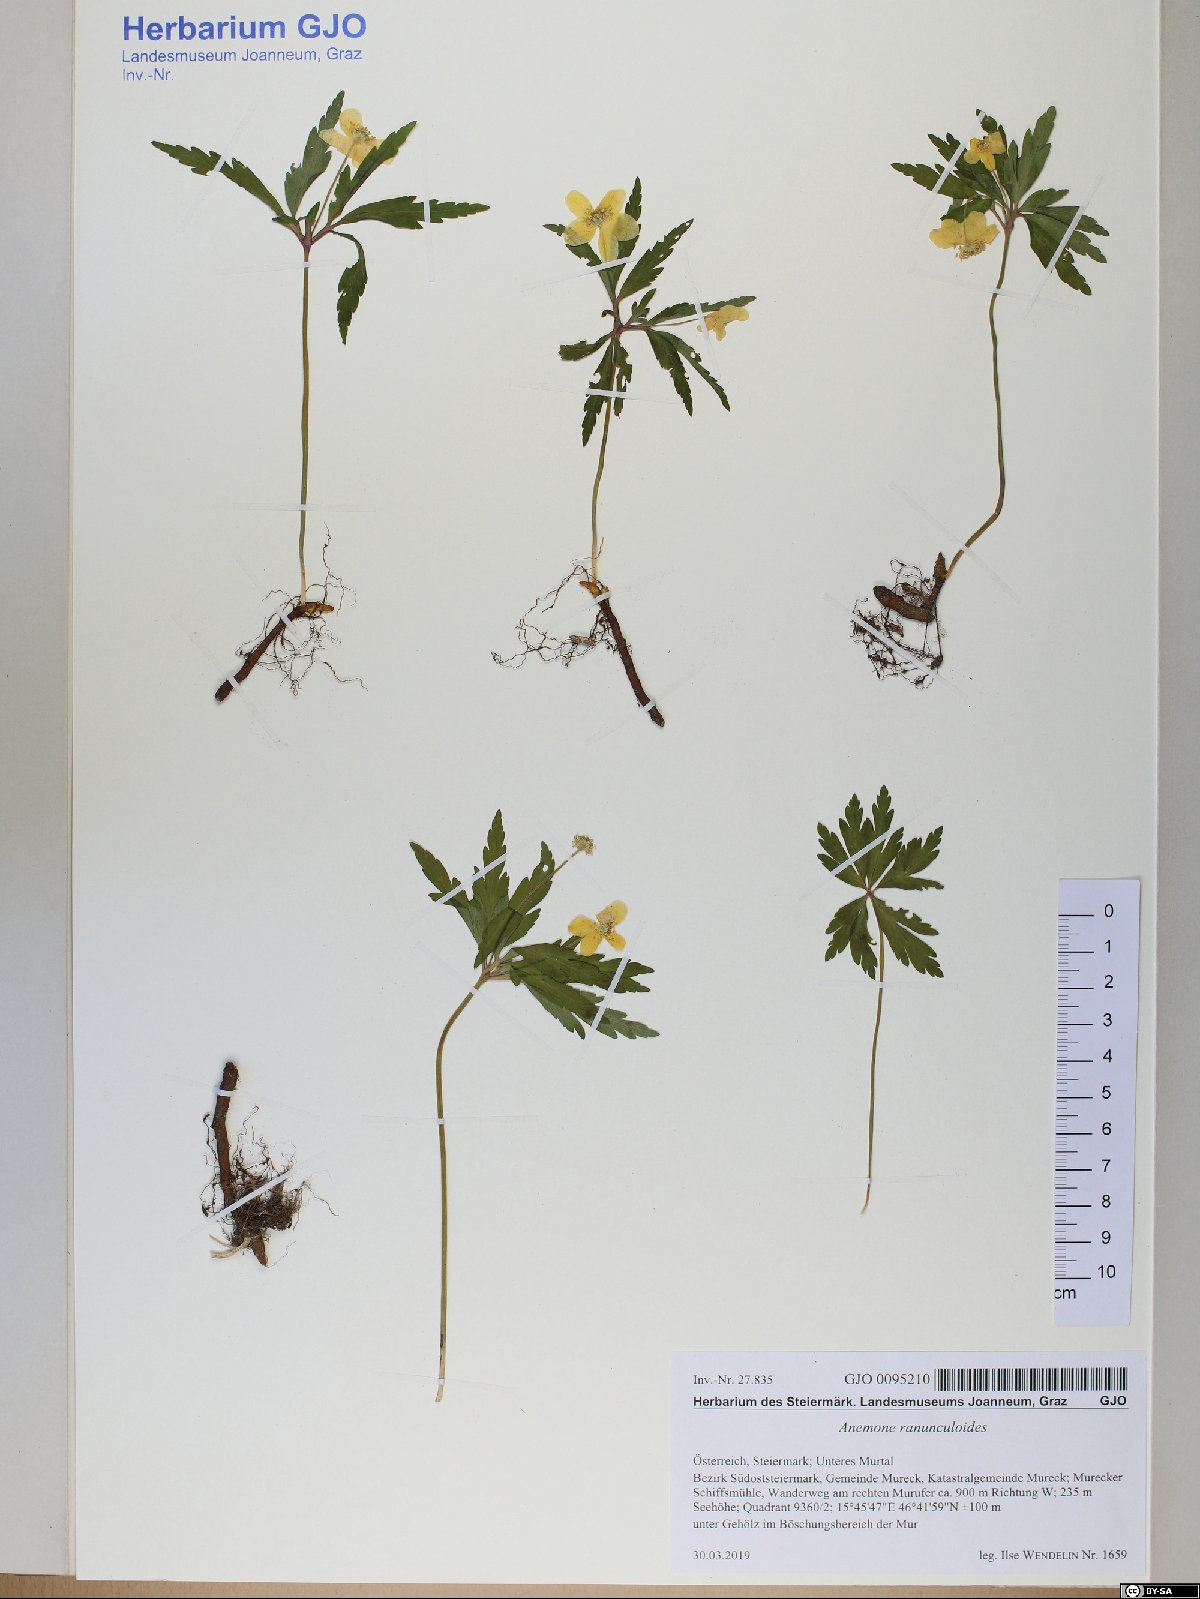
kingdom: Plantae
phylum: Tracheophyta
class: Magnoliopsida
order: Ranunculales
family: Ranunculaceae
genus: Anemone
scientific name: Anemone ranunculoides
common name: Yellow anemone
